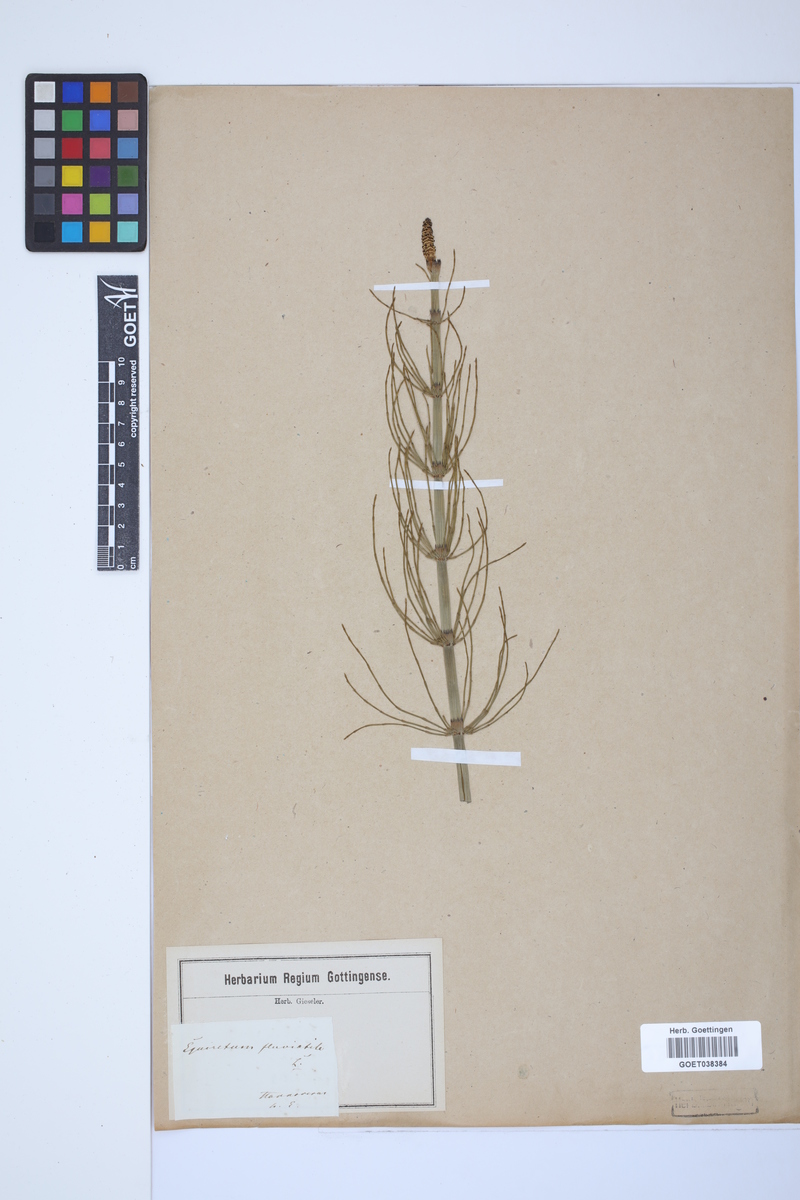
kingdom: Plantae
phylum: Tracheophyta
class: Polypodiopsida
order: Equisetales
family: Equisetaceae
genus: Equisetum
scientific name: Equisetum fluviatile
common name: Water horsetail
